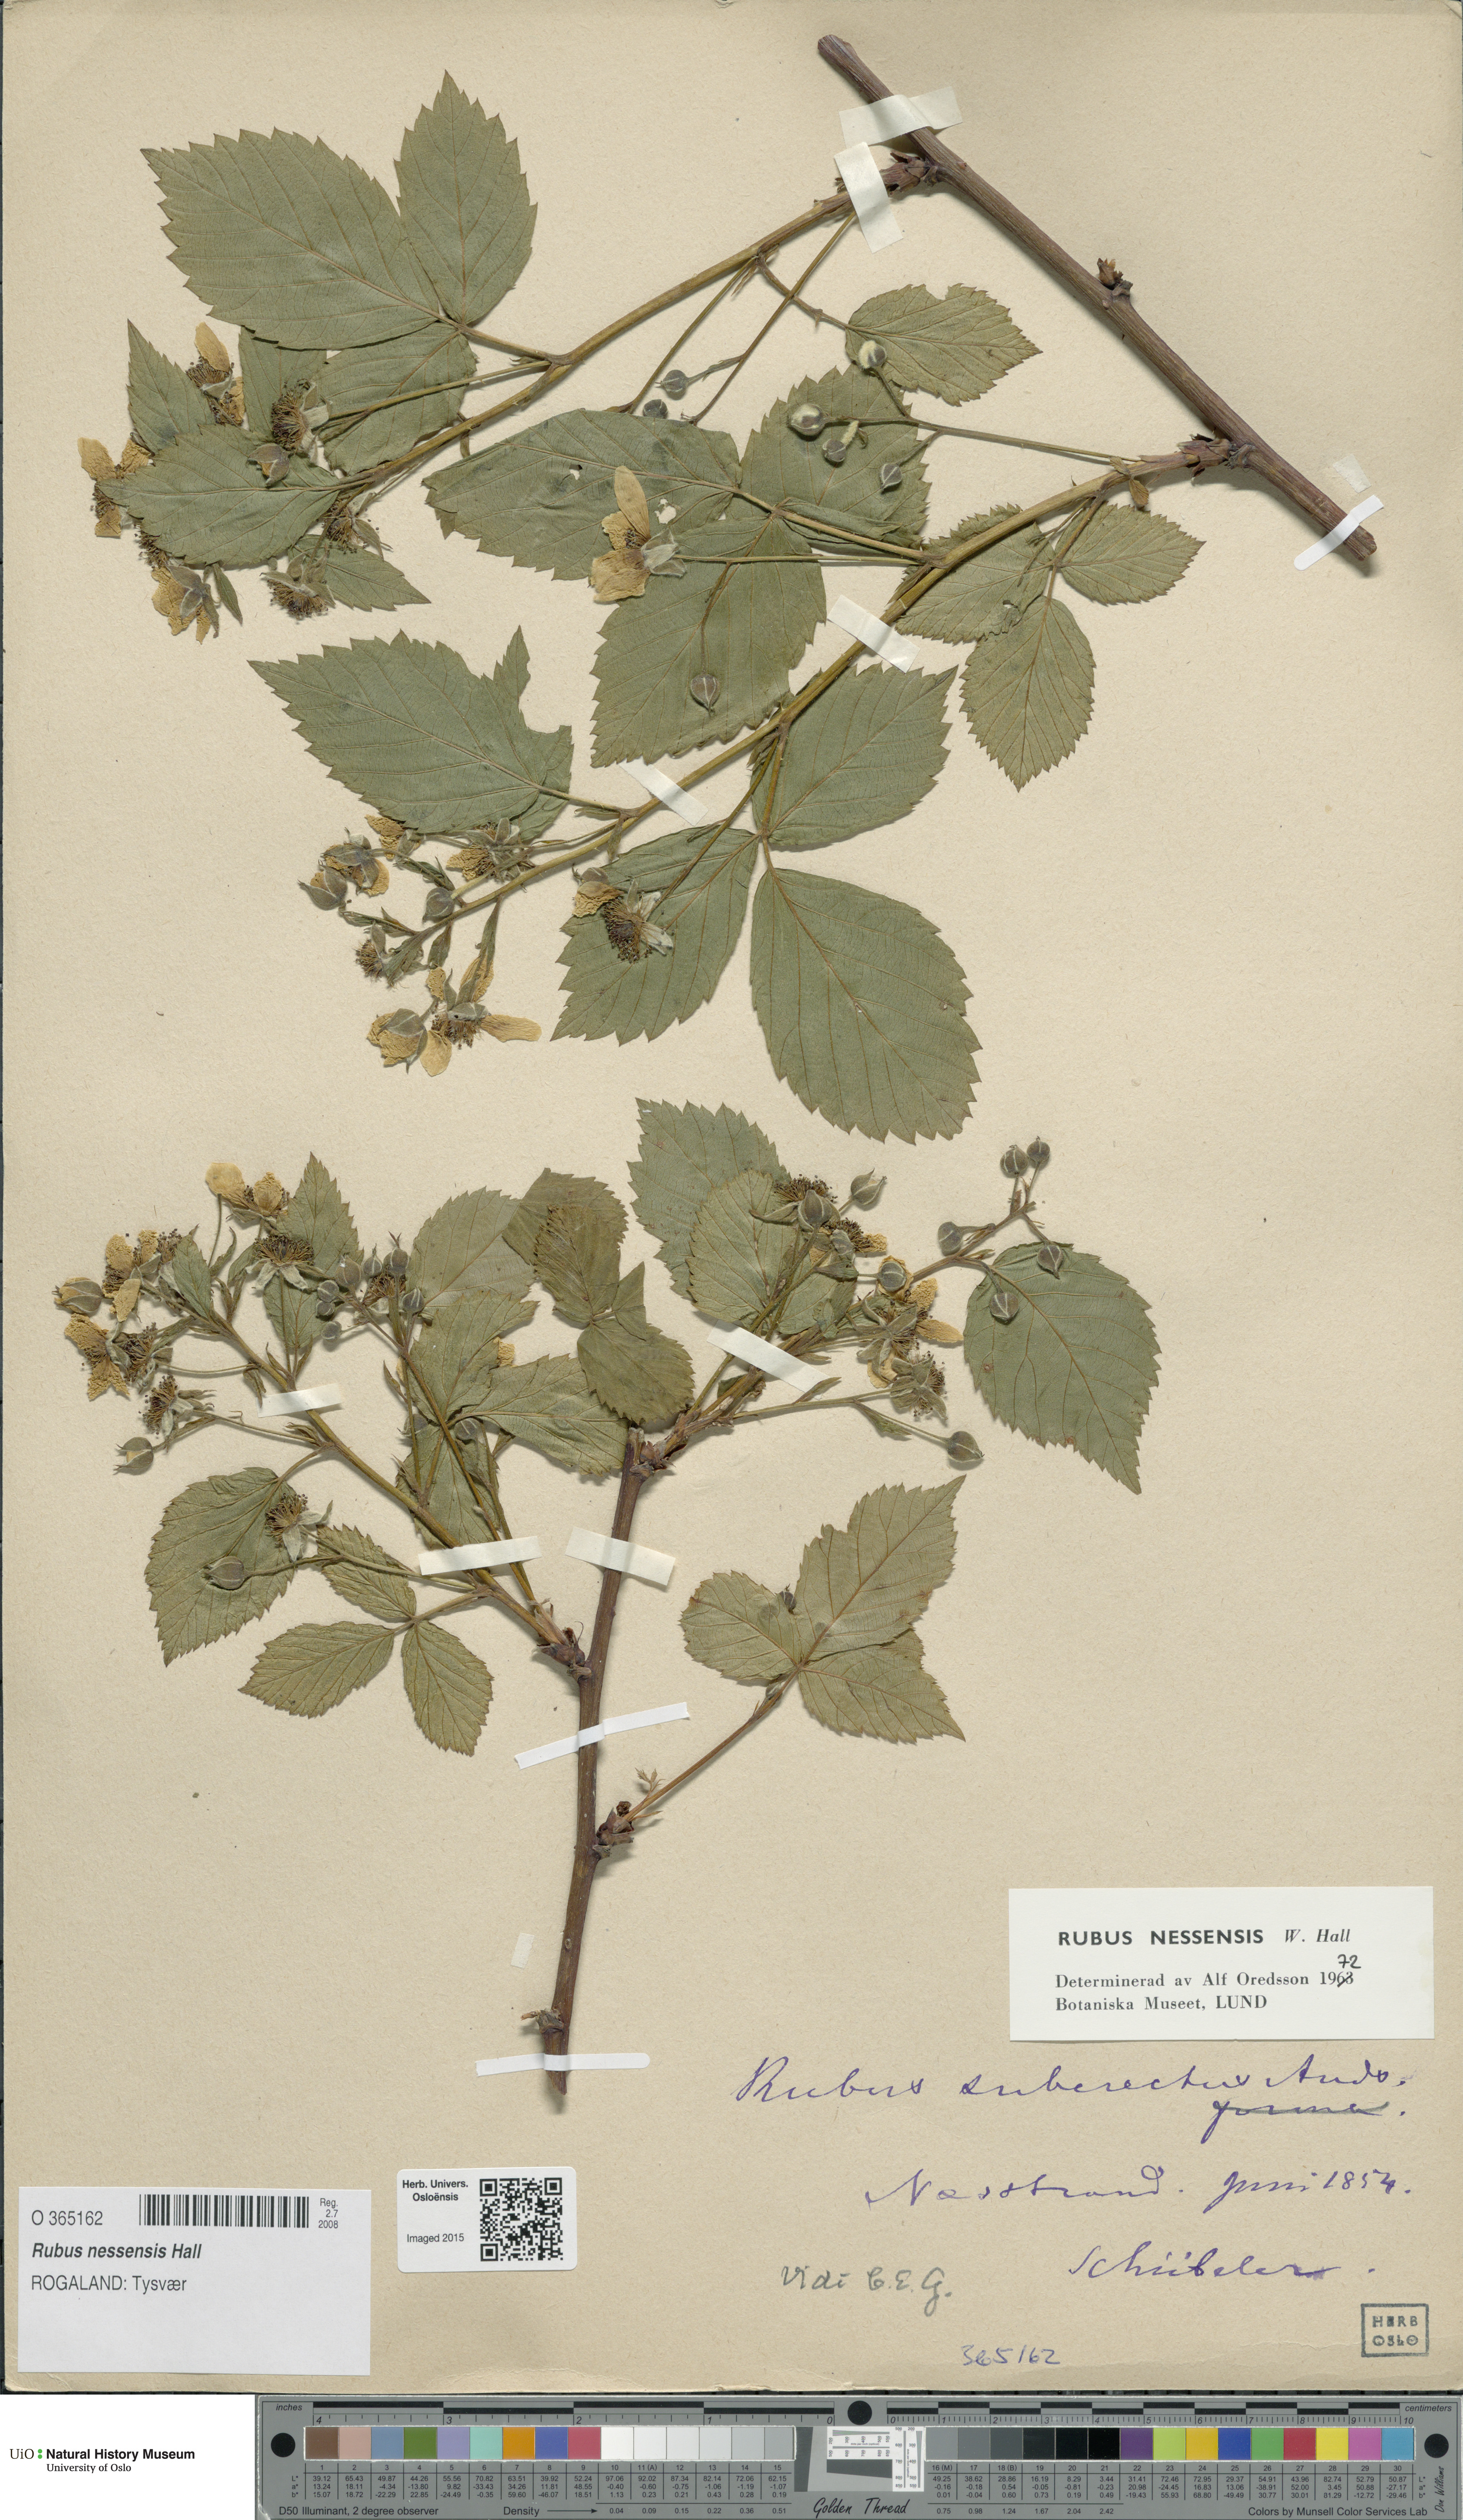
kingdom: Plantae
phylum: Tracheophyta
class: Magnoliopsida
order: Rosales
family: Rosaceae
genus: Rubus
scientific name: Rubus polonicus
